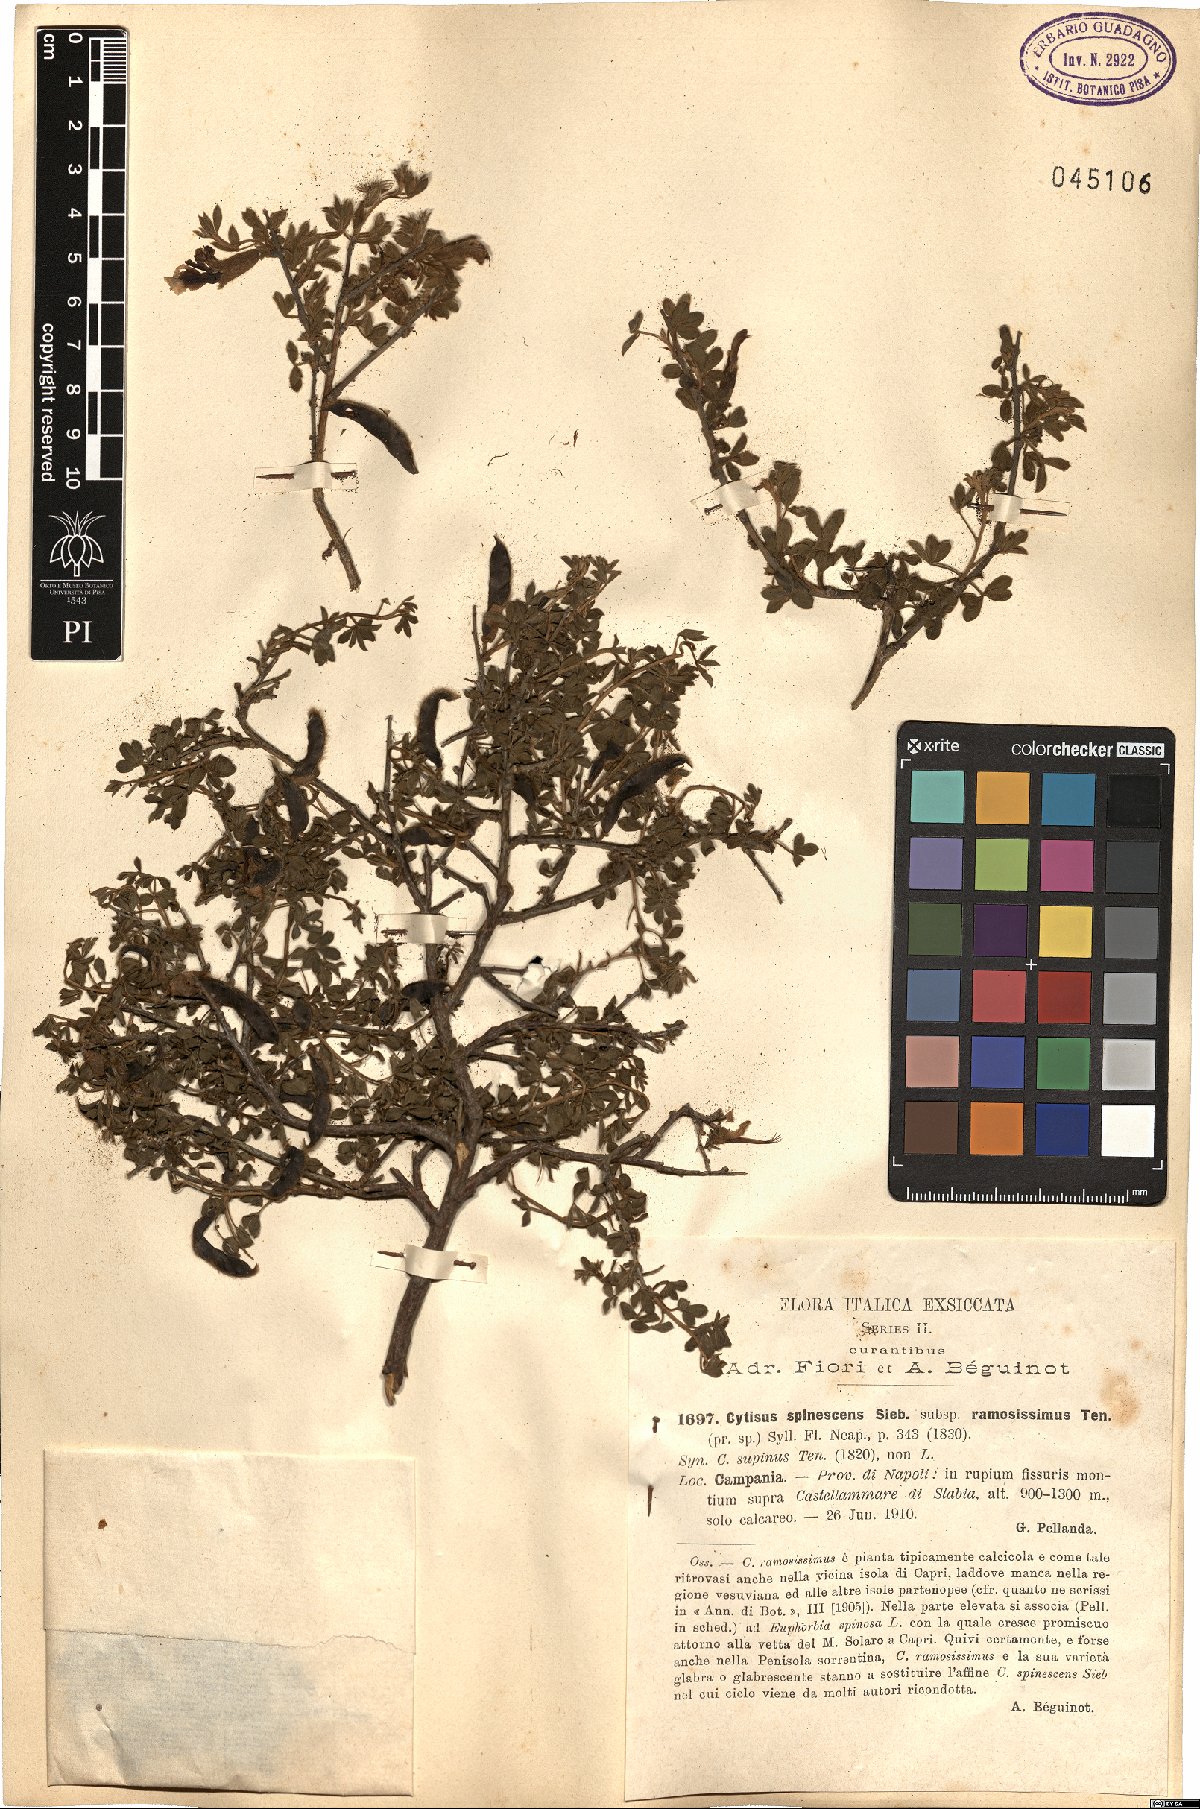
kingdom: Plantae
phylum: Tracheophyta
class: Magnoliopsida
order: Fabales
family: Fabaceae
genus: Chamaecytisus
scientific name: Chamaecytisus spinescens
